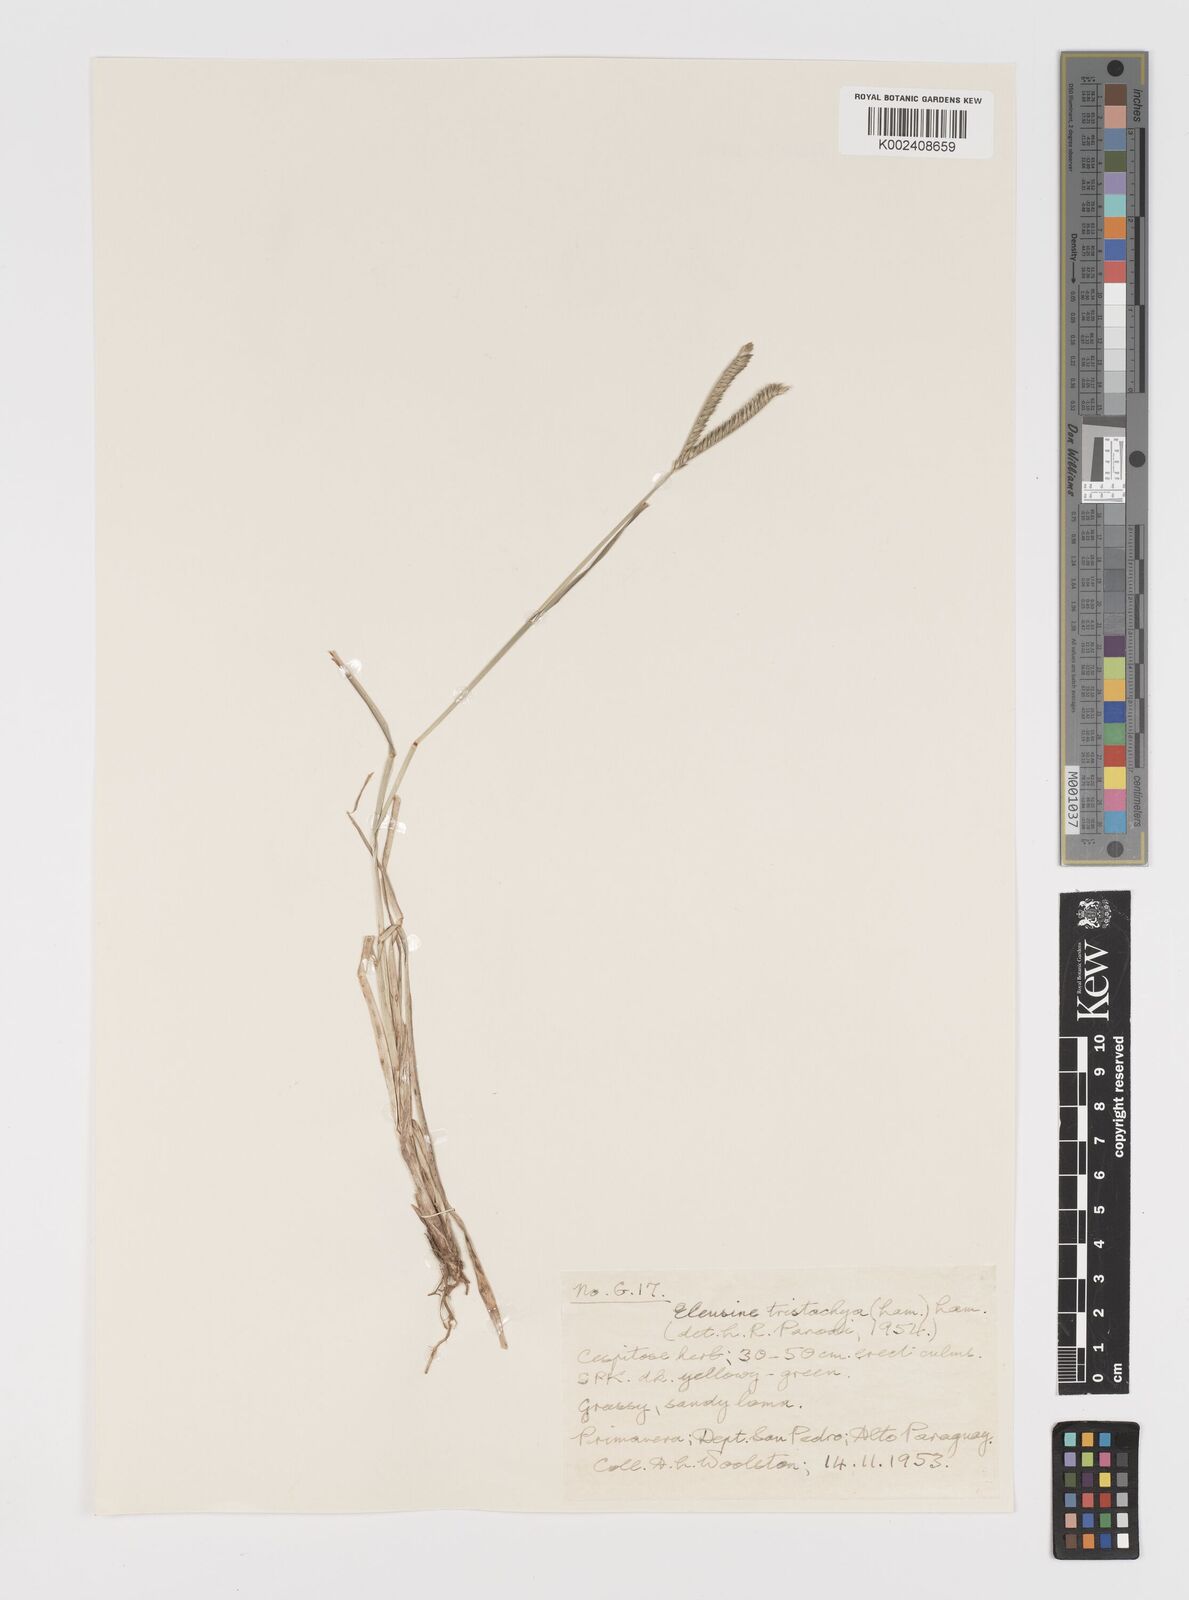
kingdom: Plantae
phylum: Tracheophyta
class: Liliopsida
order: Poales
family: Poaceae
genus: Eleusine
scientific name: Eleusine tristachya
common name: American yard-grass
